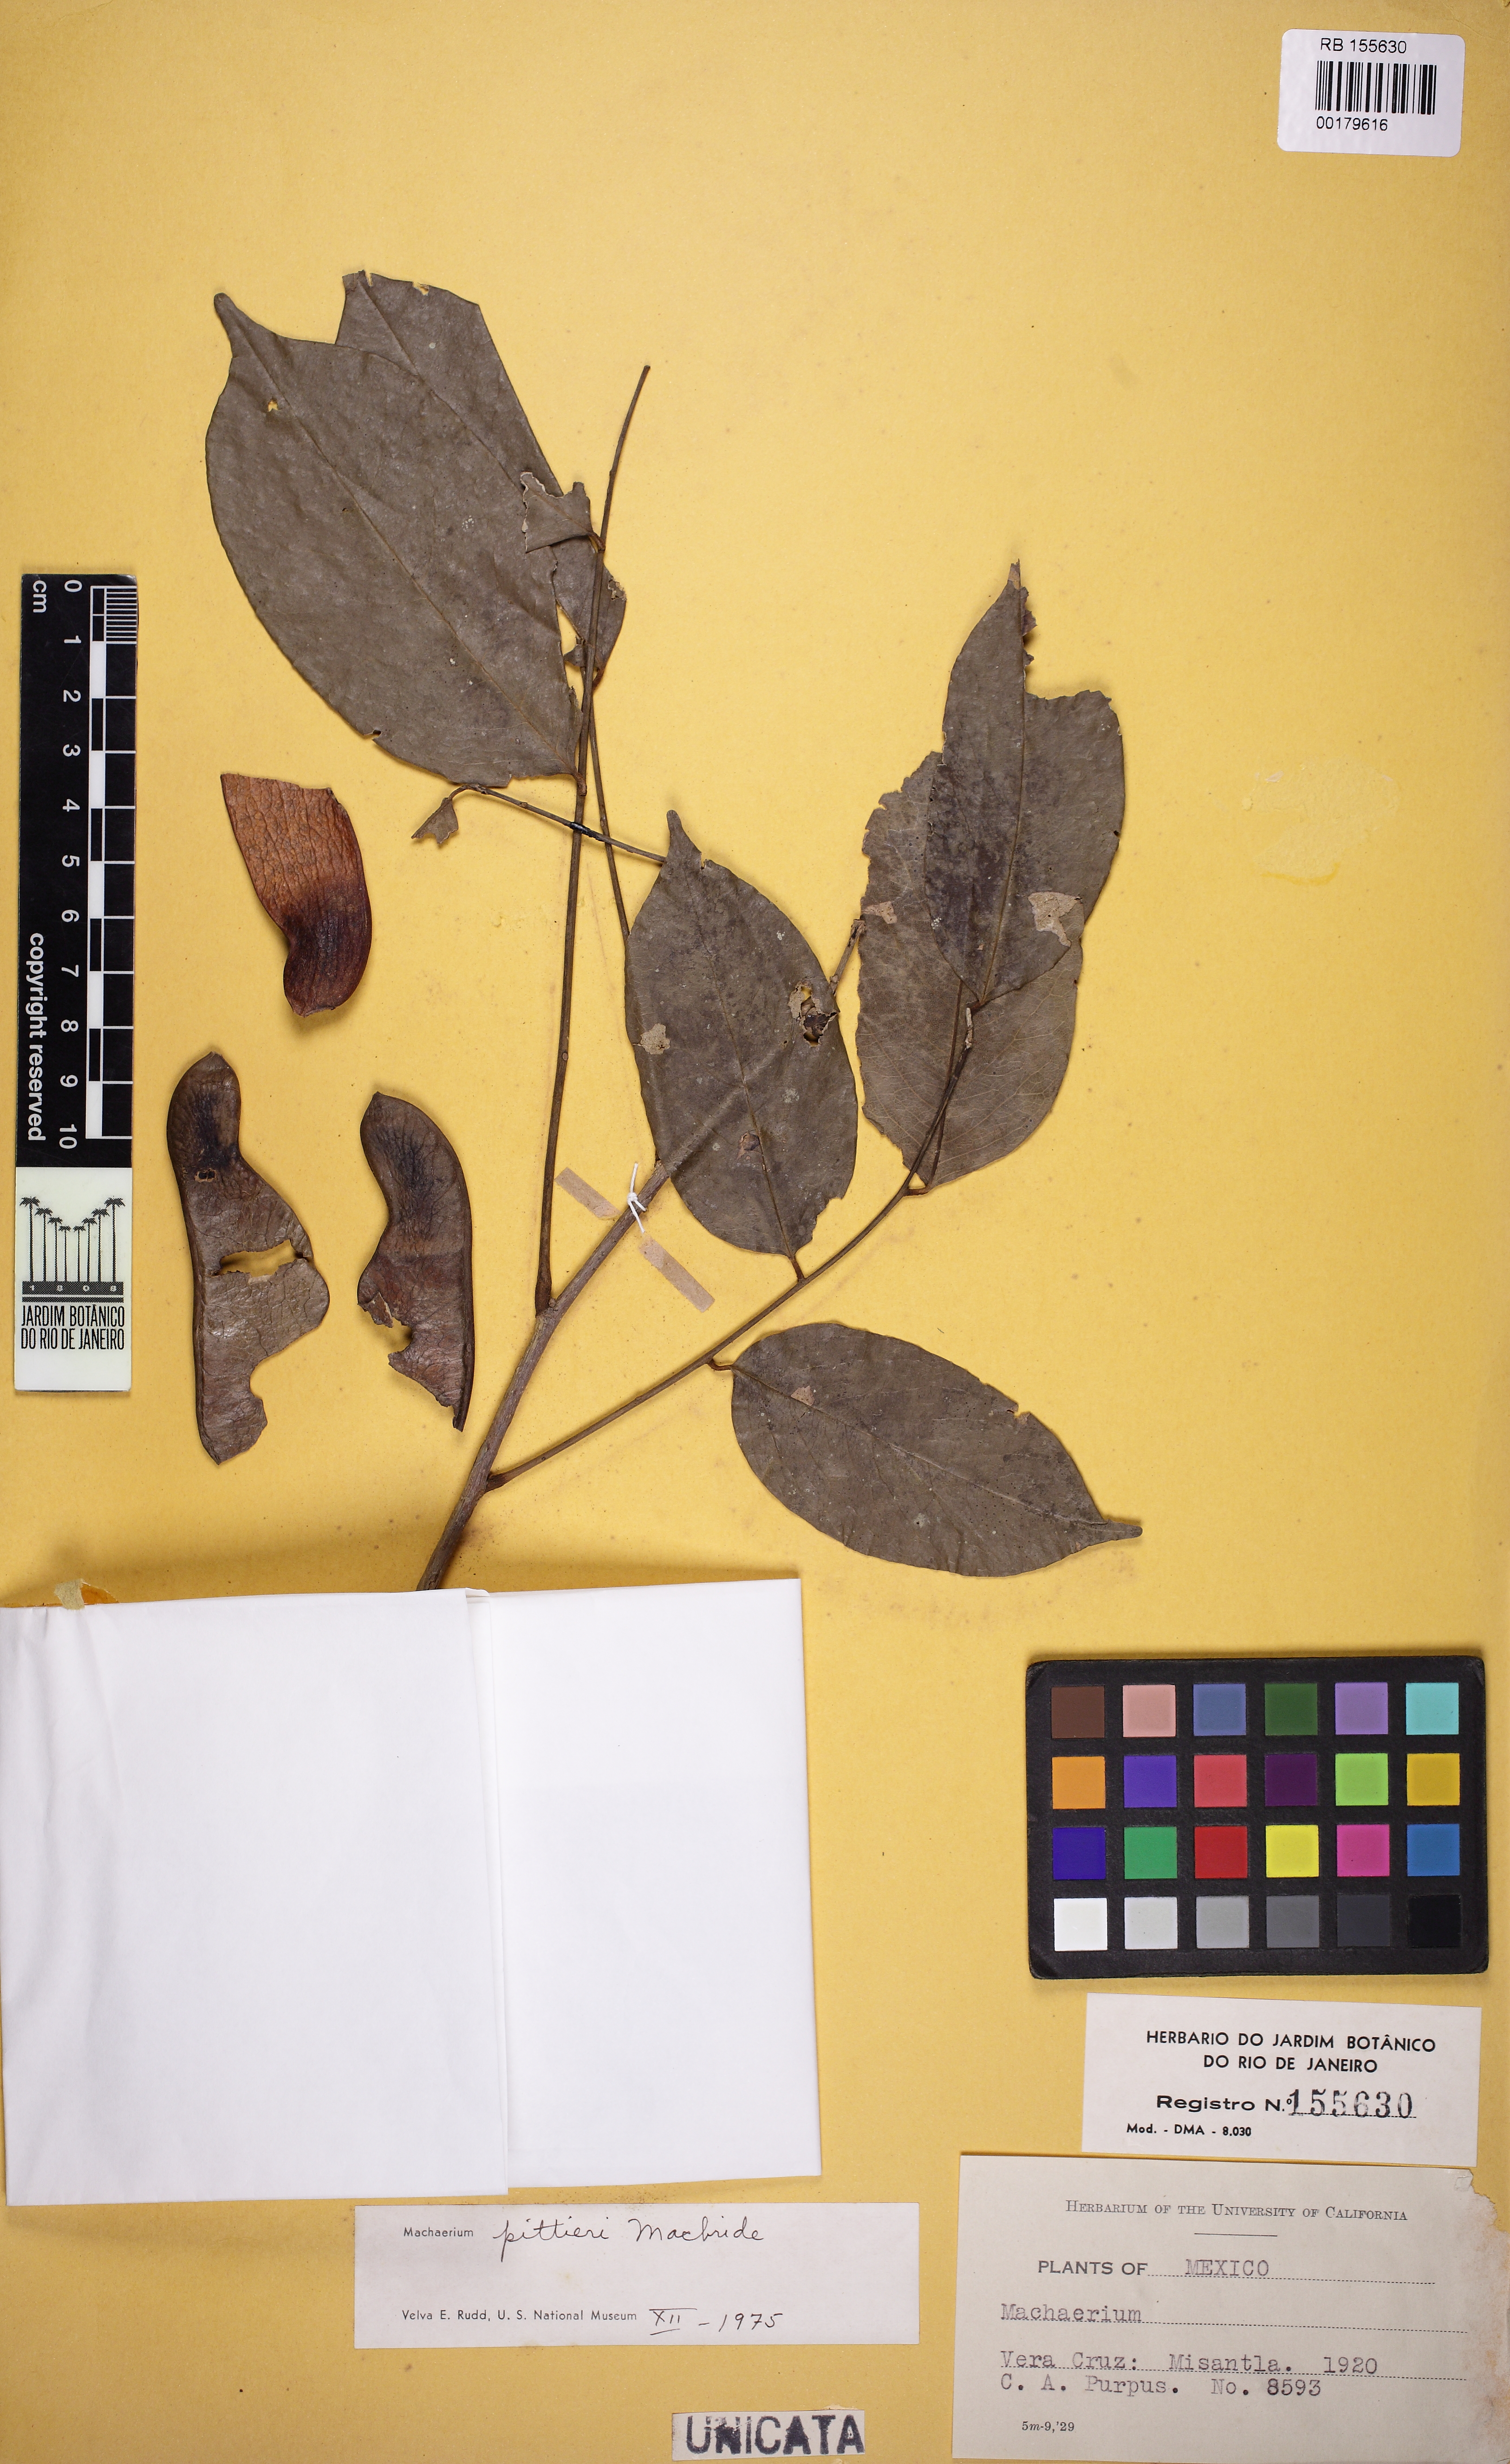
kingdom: Plantae
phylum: Tracheophyta
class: Magnoliopsida
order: Fabales
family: Fabaceae
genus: Machaerium
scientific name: Machaerium pittieri
